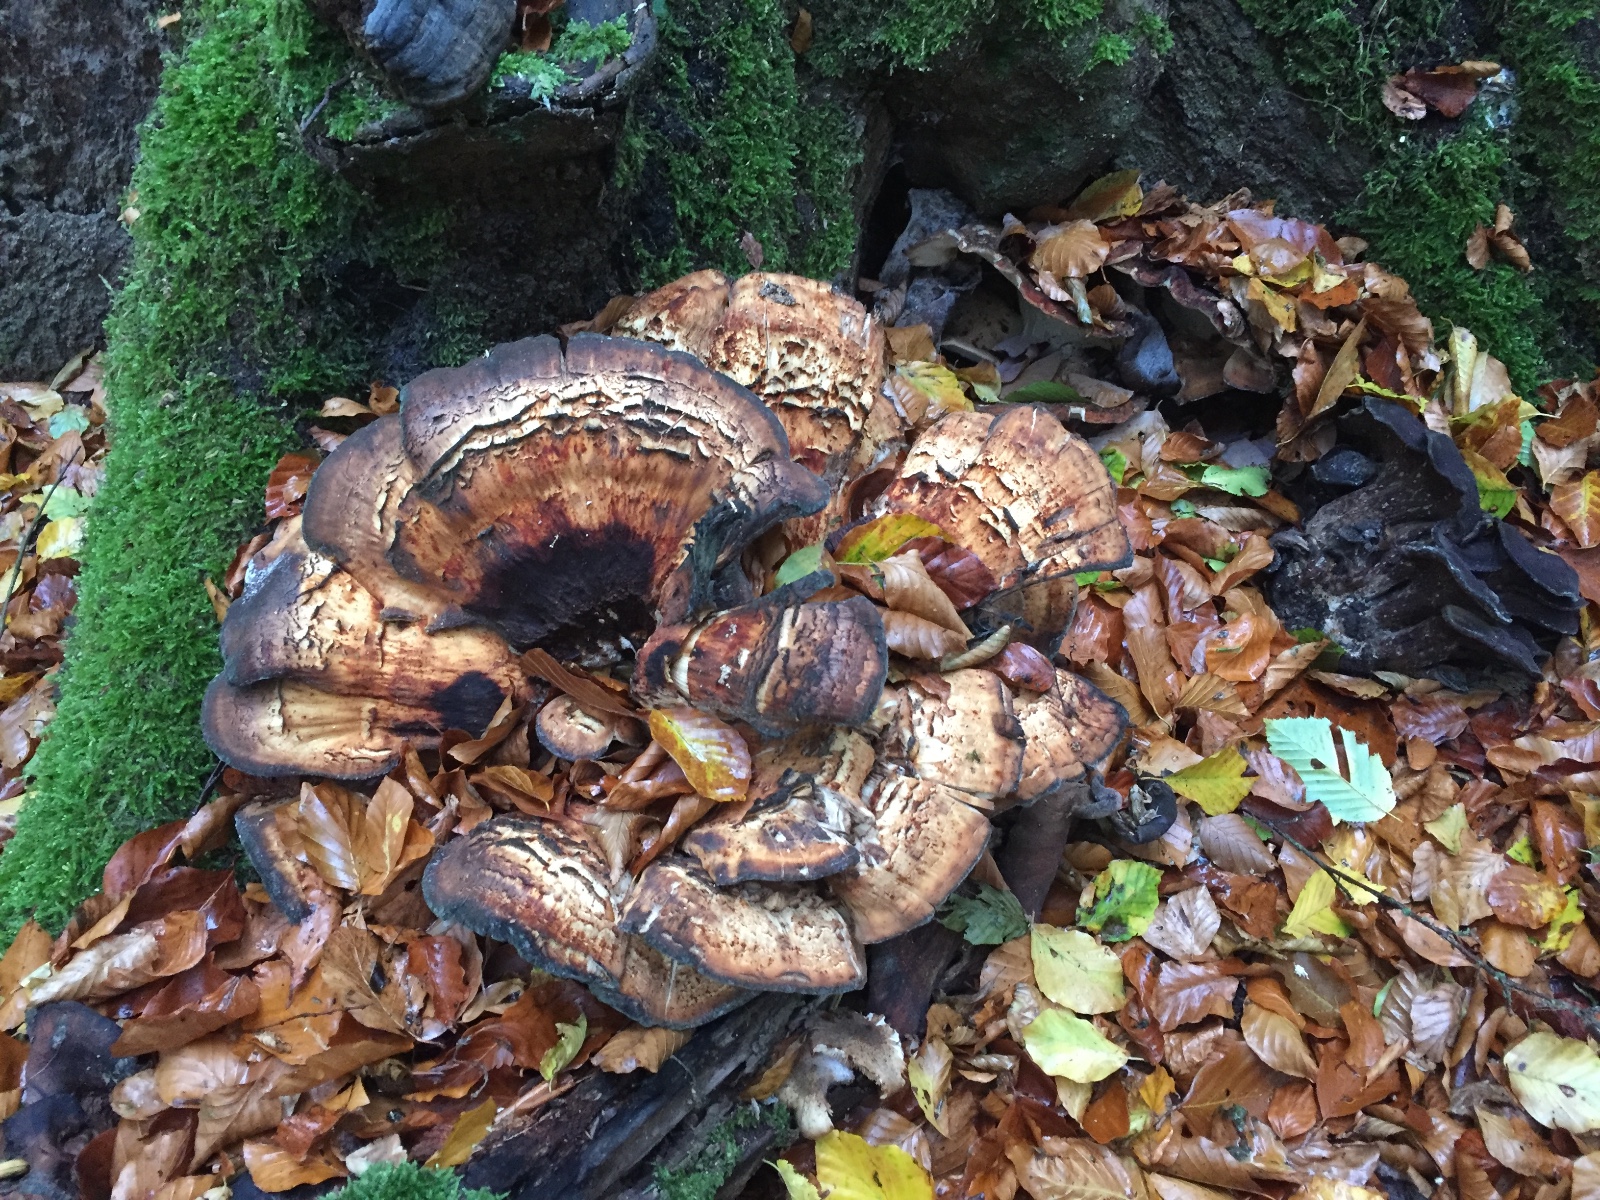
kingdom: Fungi
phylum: Basidiomycota
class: Agaricomycetes
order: Polyporales
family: Meripilaceae
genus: Meripilus
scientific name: Meripilus giganteus
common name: kæmpeporesvamp
